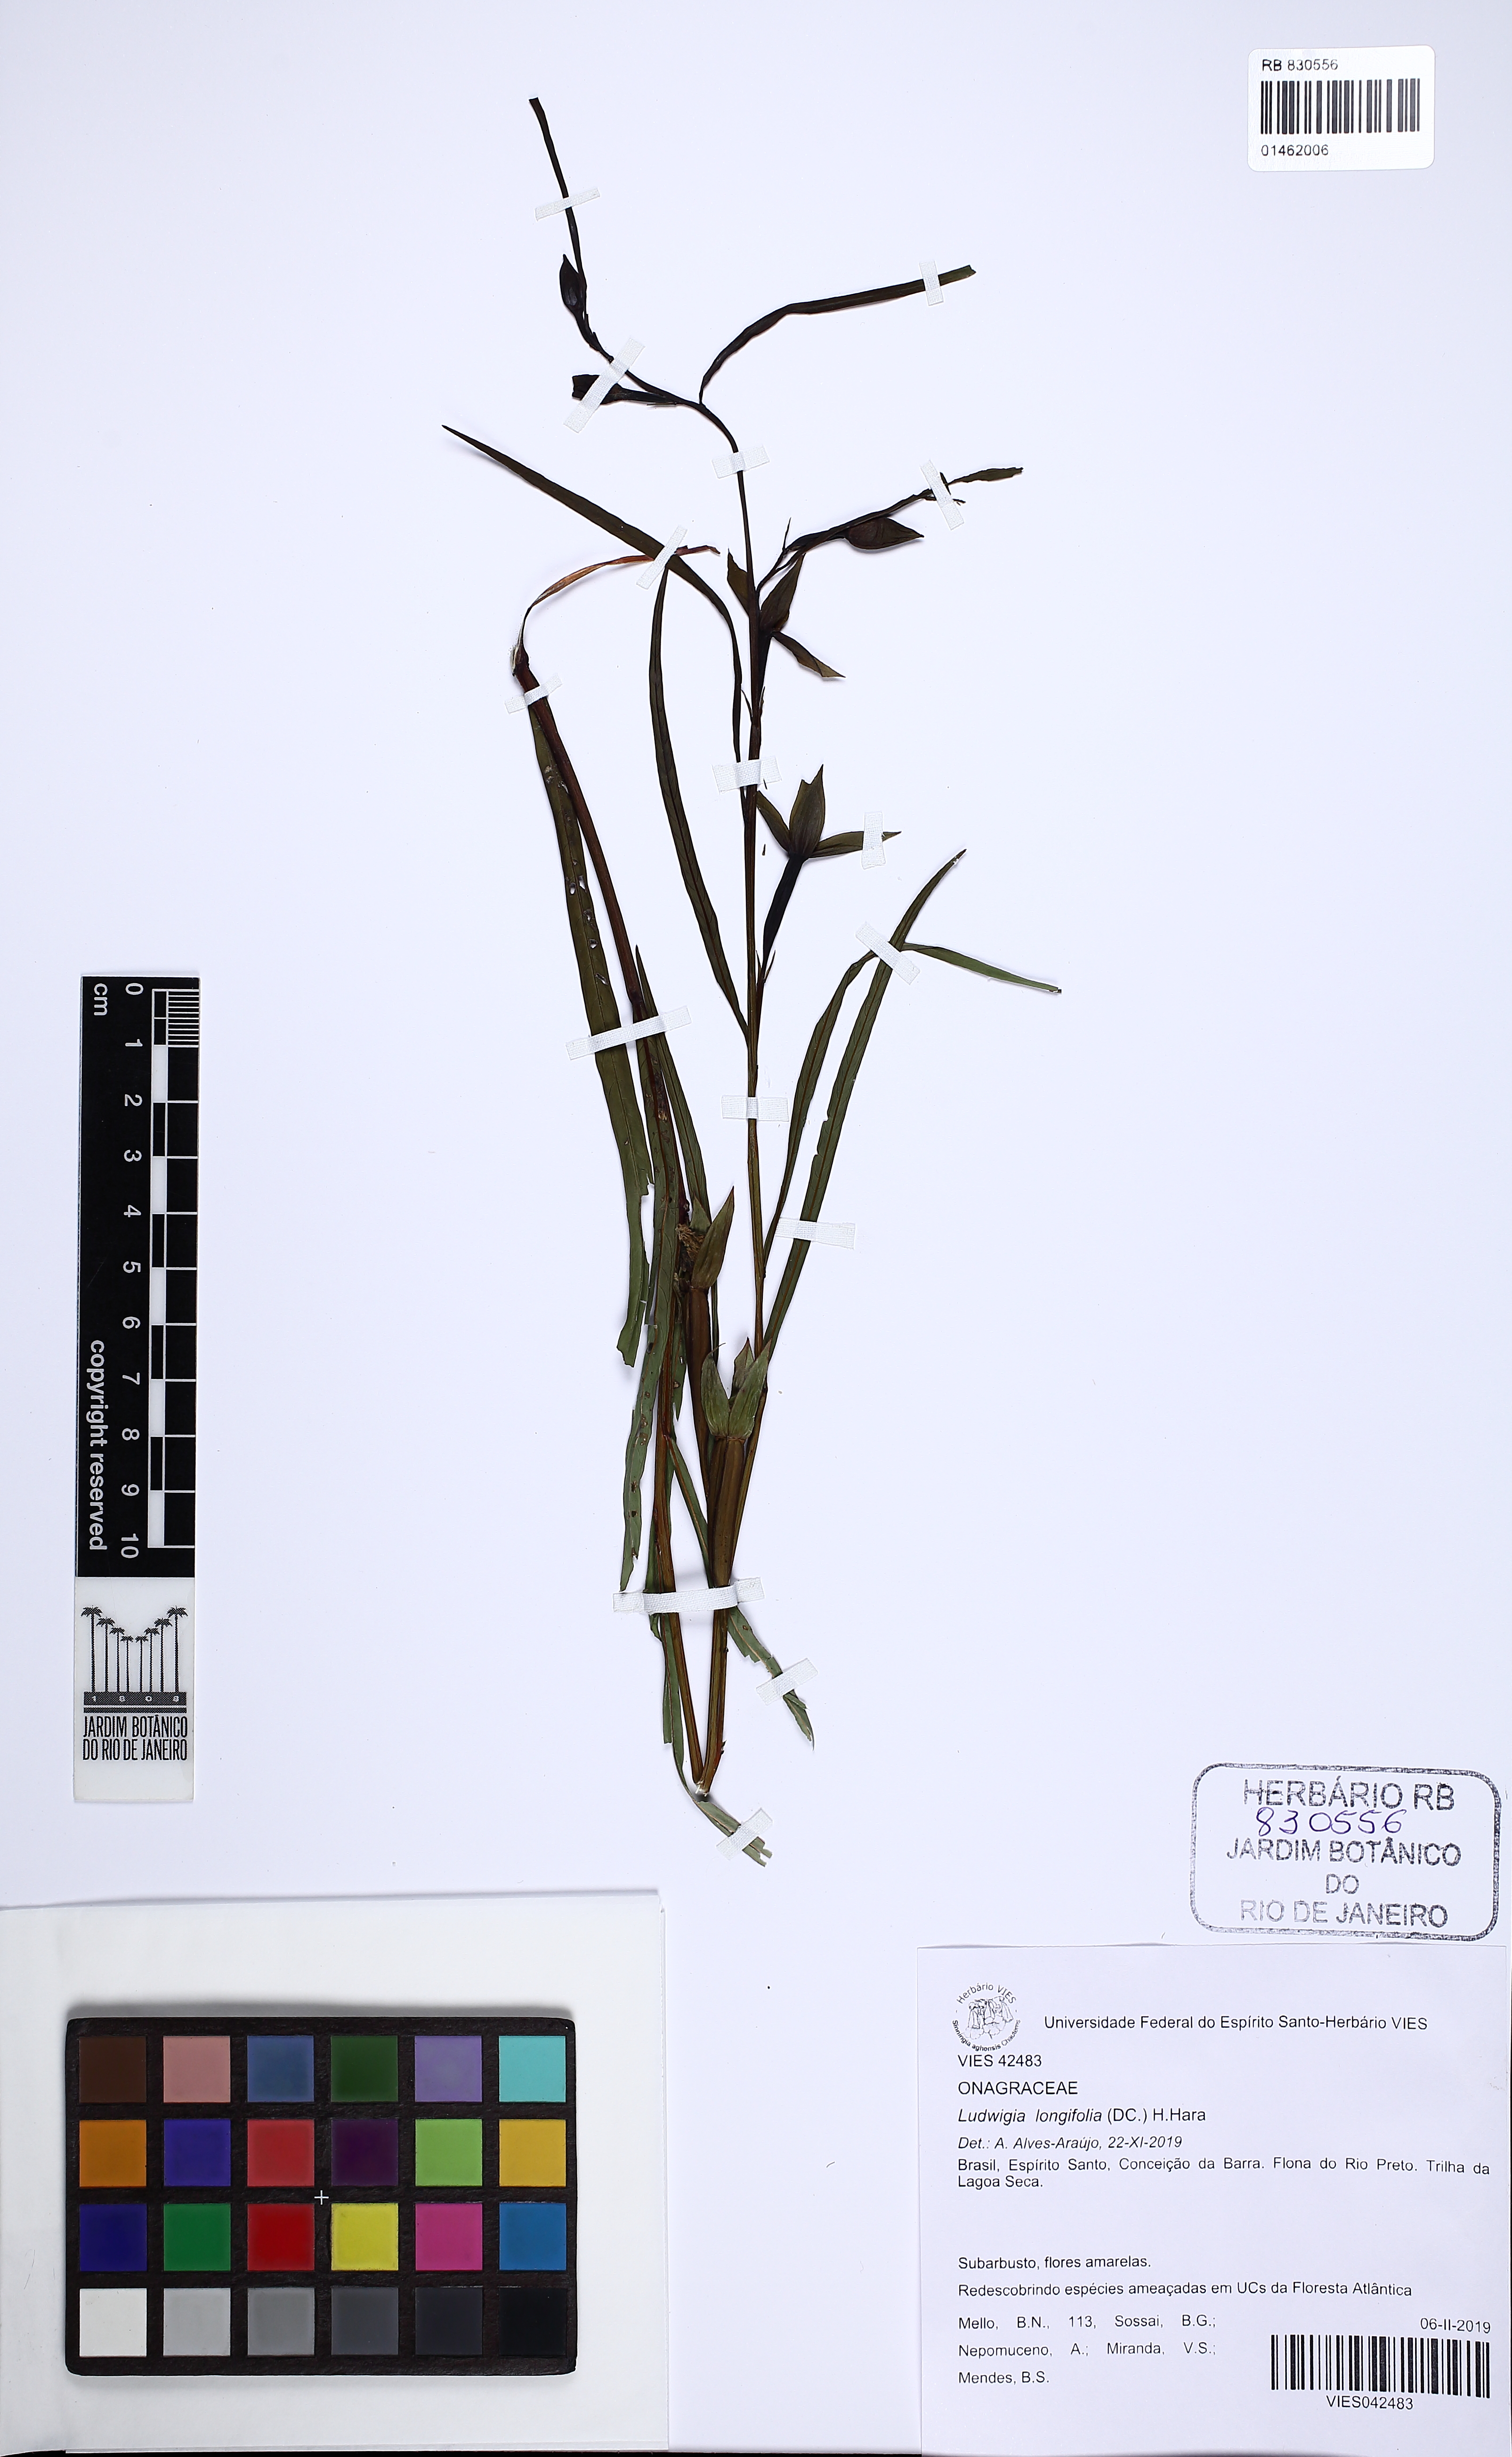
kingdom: Plantae
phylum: Tracheophyta
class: Magnoliopsida
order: Myrtales
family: Onagraceae
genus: Ludwigia
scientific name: Ludwigia longifolia
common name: Longleaf primrose-willow
